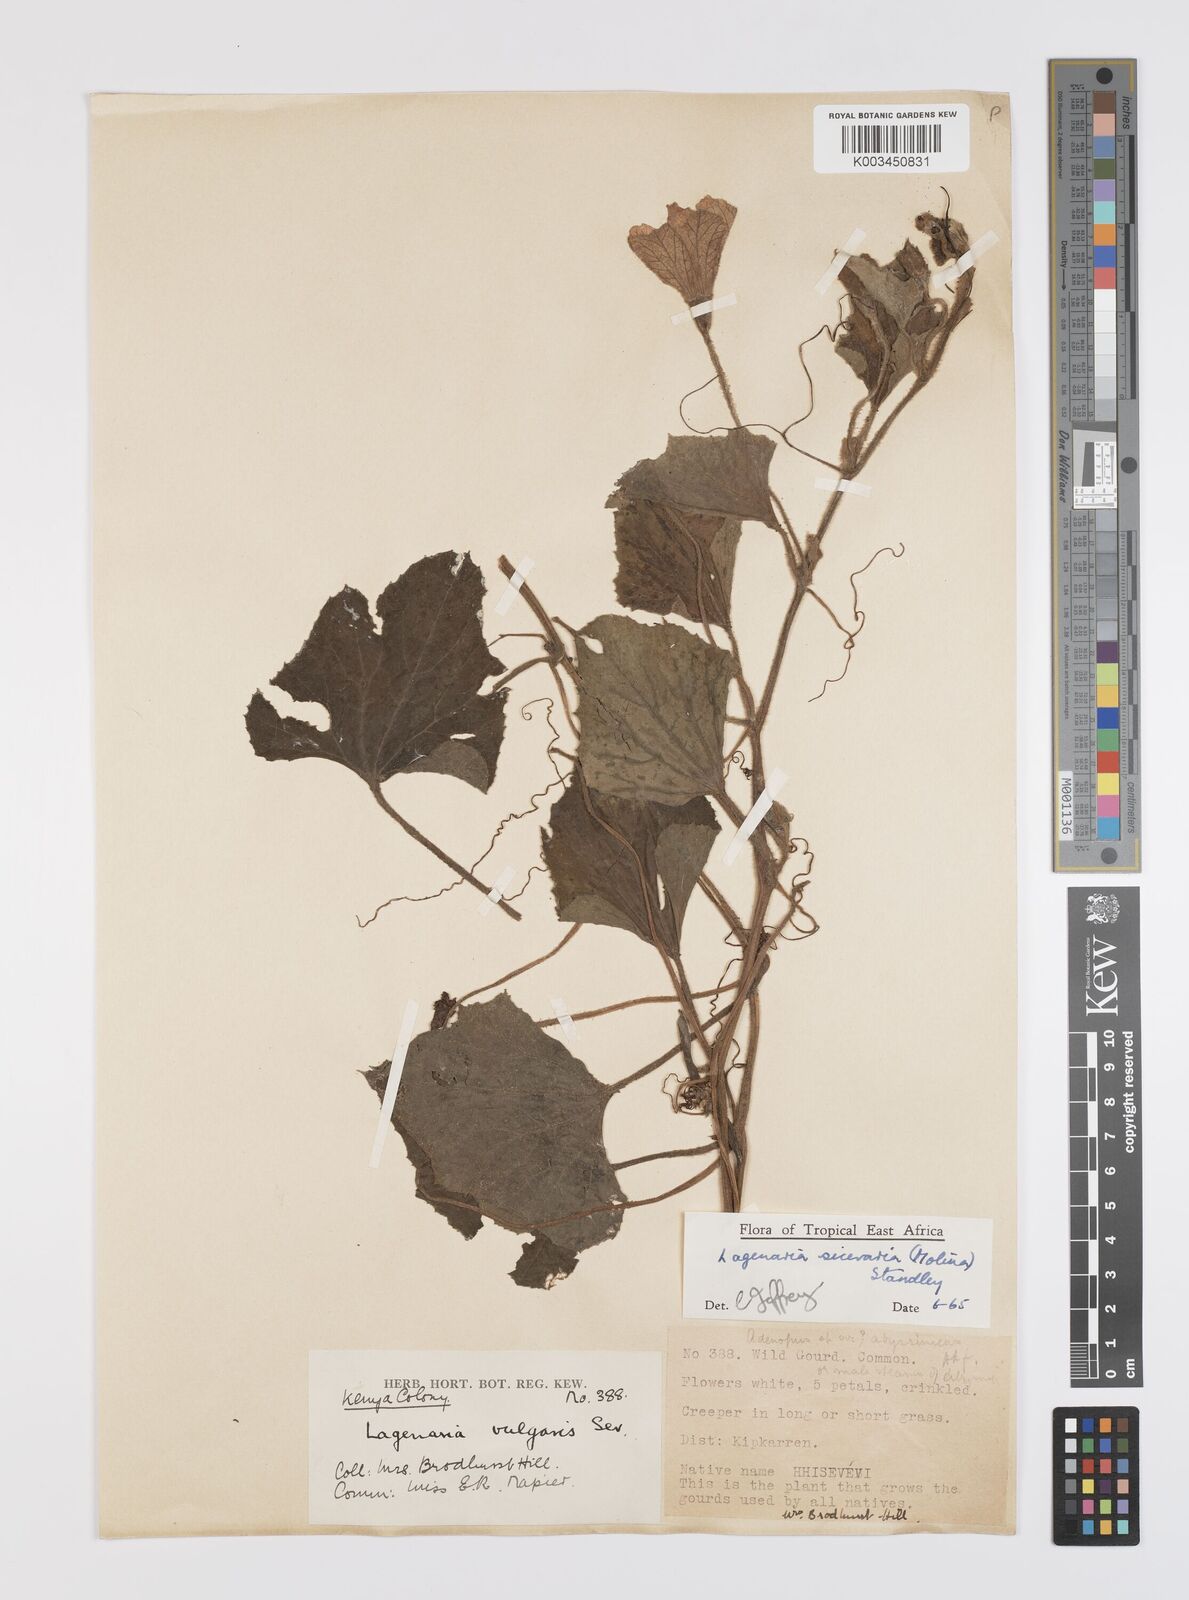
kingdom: Plantae
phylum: Tracheophyta
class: Magnoliopsida
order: Cucurbitales
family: Cucurbitaceae
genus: Lagenaria
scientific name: Lagenaria siceraria
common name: Bottle gourd
